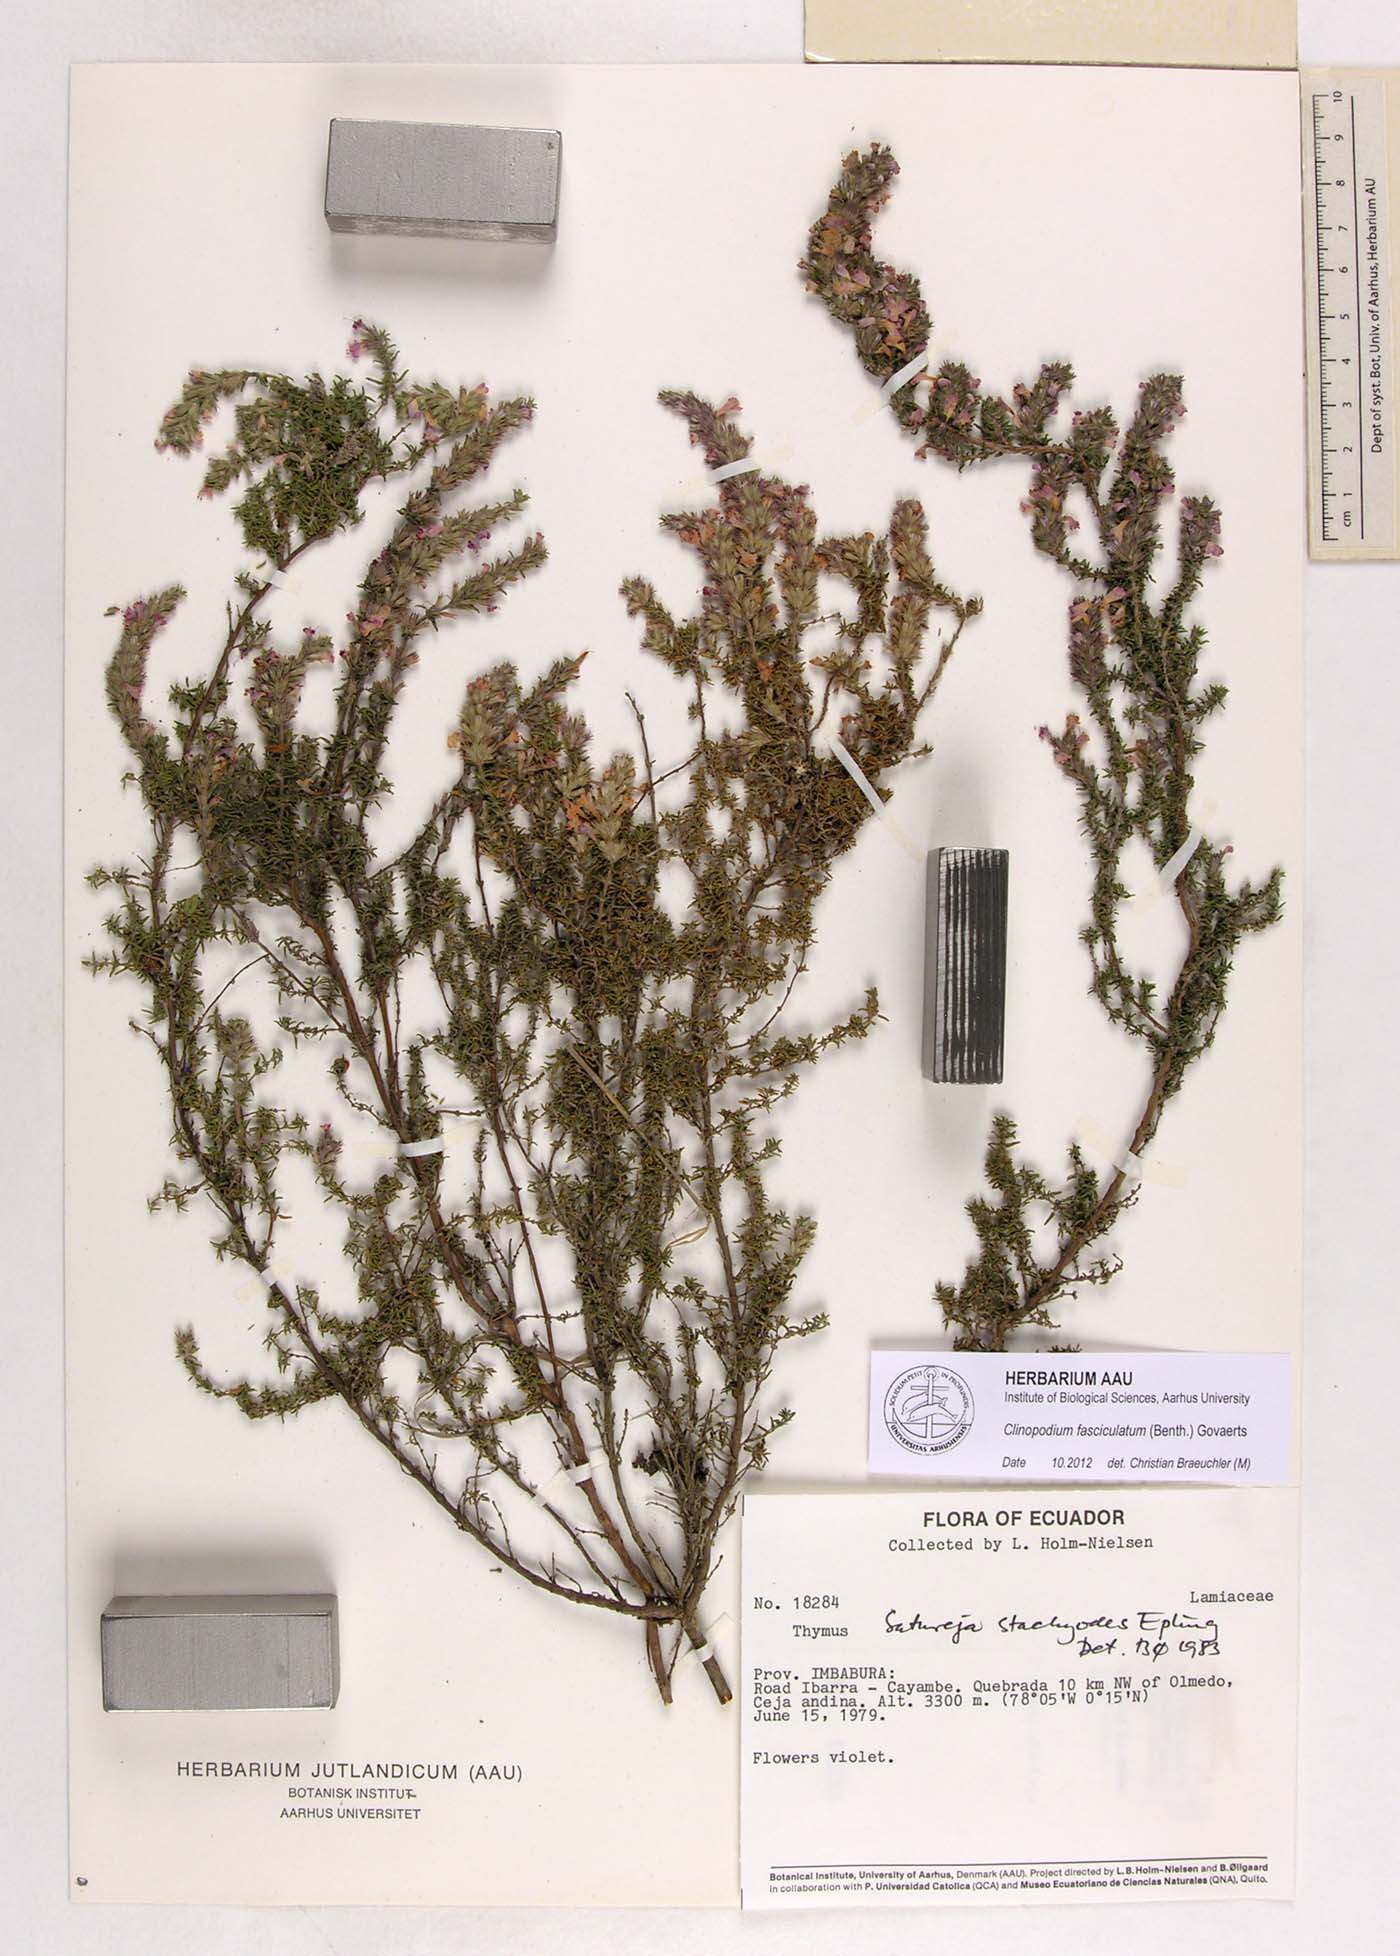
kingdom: Plantae
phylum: Tracheophyta
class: Magnoliopsida
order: Lamiales
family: Lamiaceae
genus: Clinopodium
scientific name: Clinopodium fasciculatum
